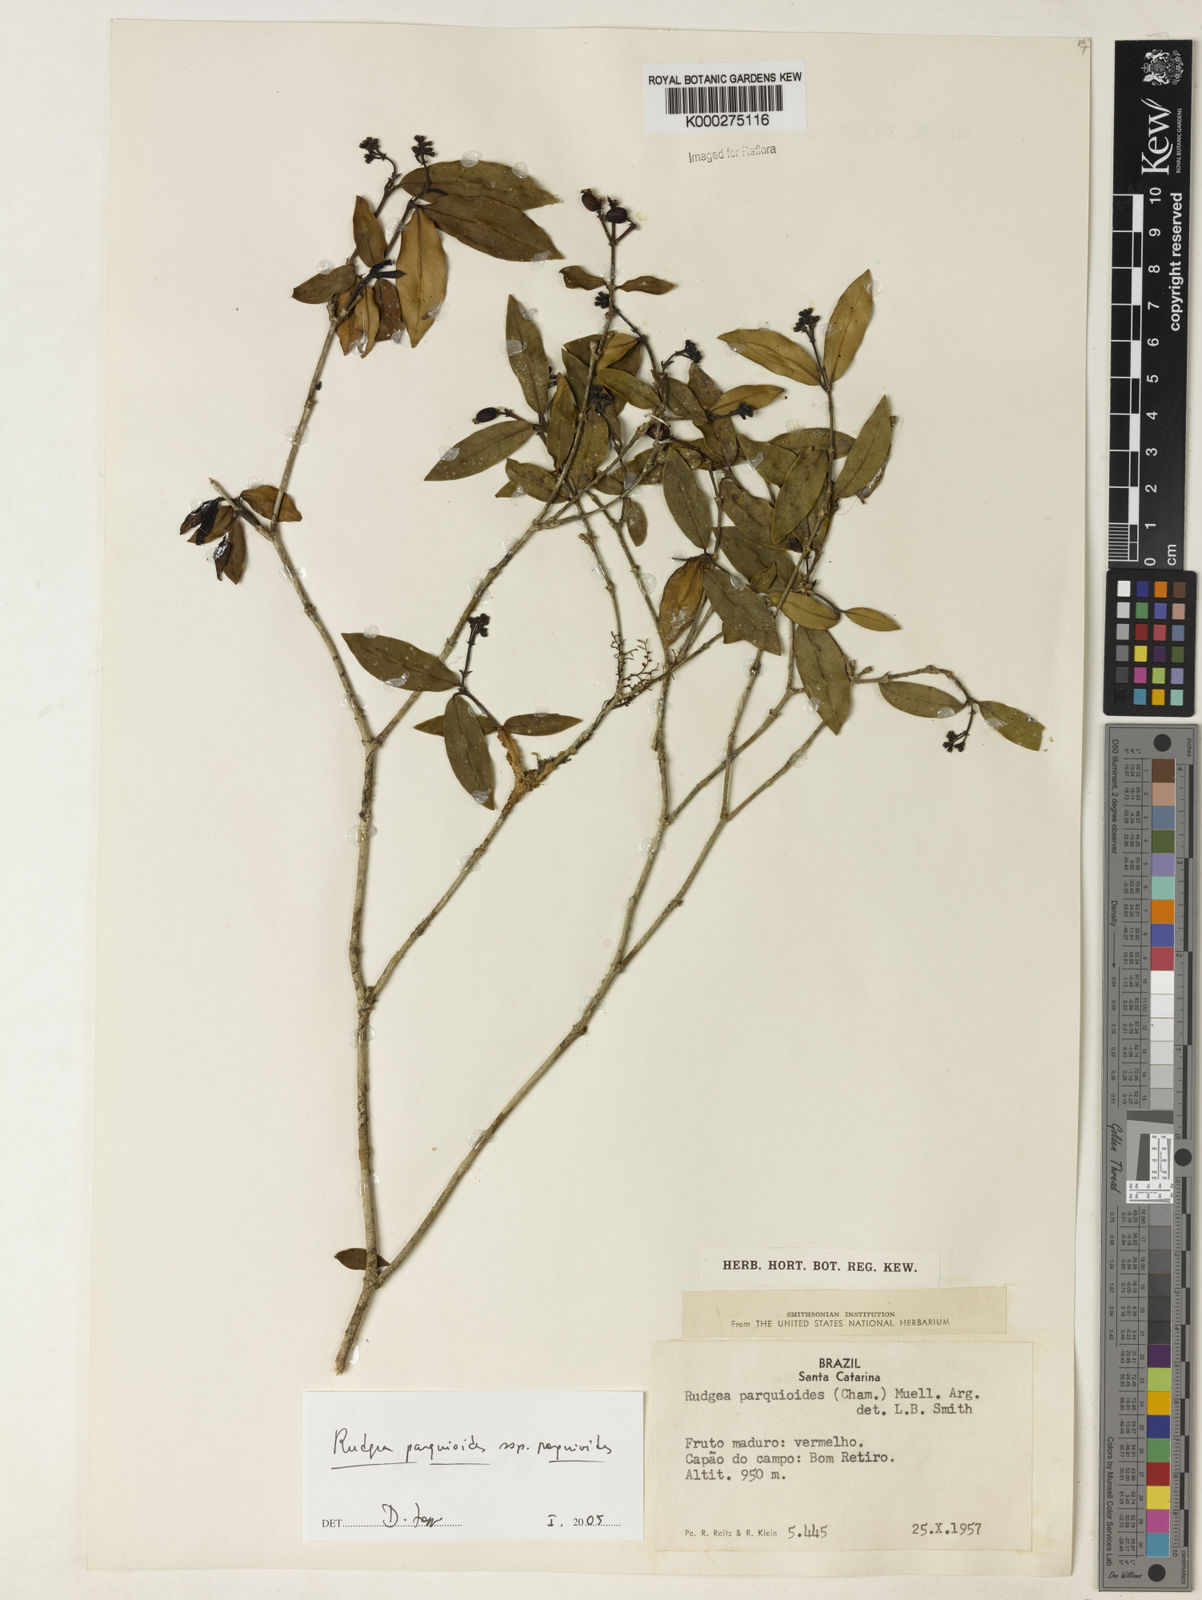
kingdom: Plantae
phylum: Tracheophyta
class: Magnoliopsida
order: Gentianales
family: Rubiaceae
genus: Rudgea
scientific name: Rudgea parquioides
